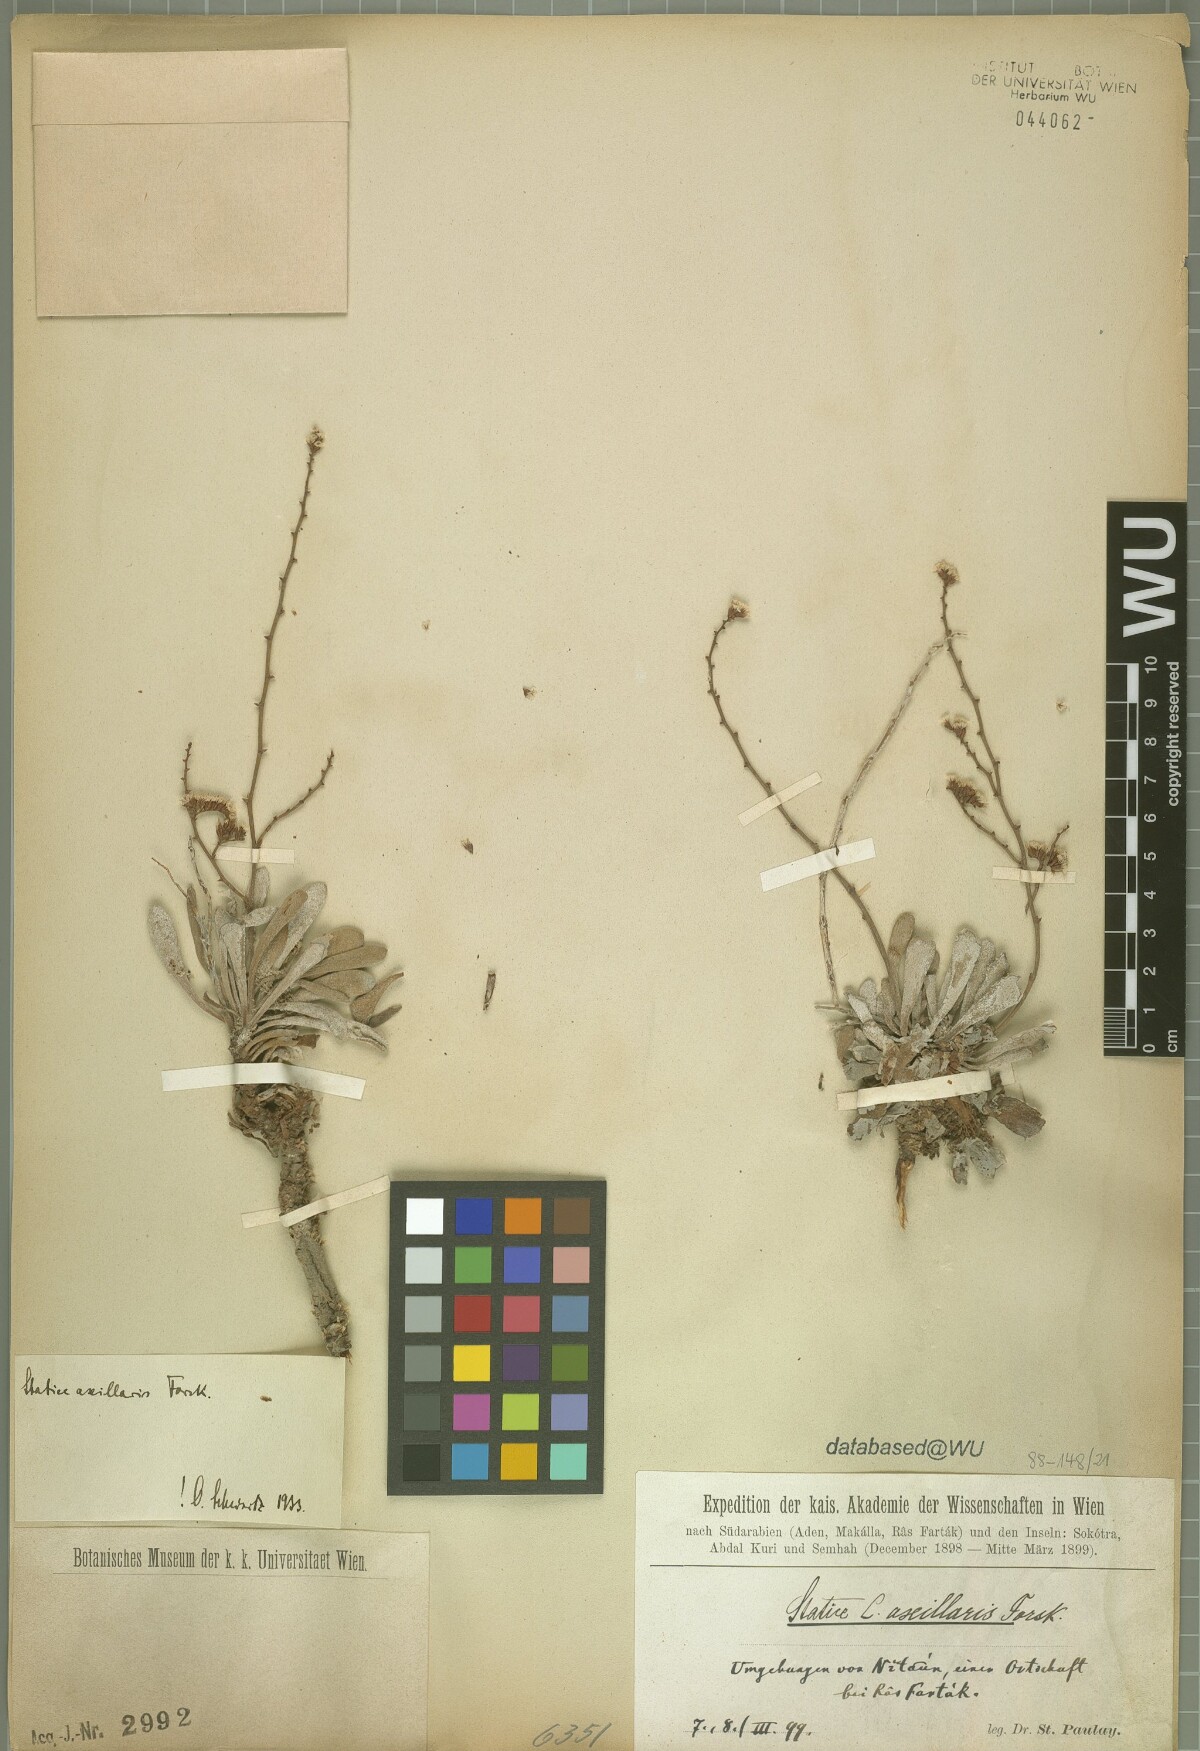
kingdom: Plantae
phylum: Tracheophyta
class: Magnoliopsida
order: Caryophyllales
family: Plumbaginaceae
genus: Limonium
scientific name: Limonium axillare
